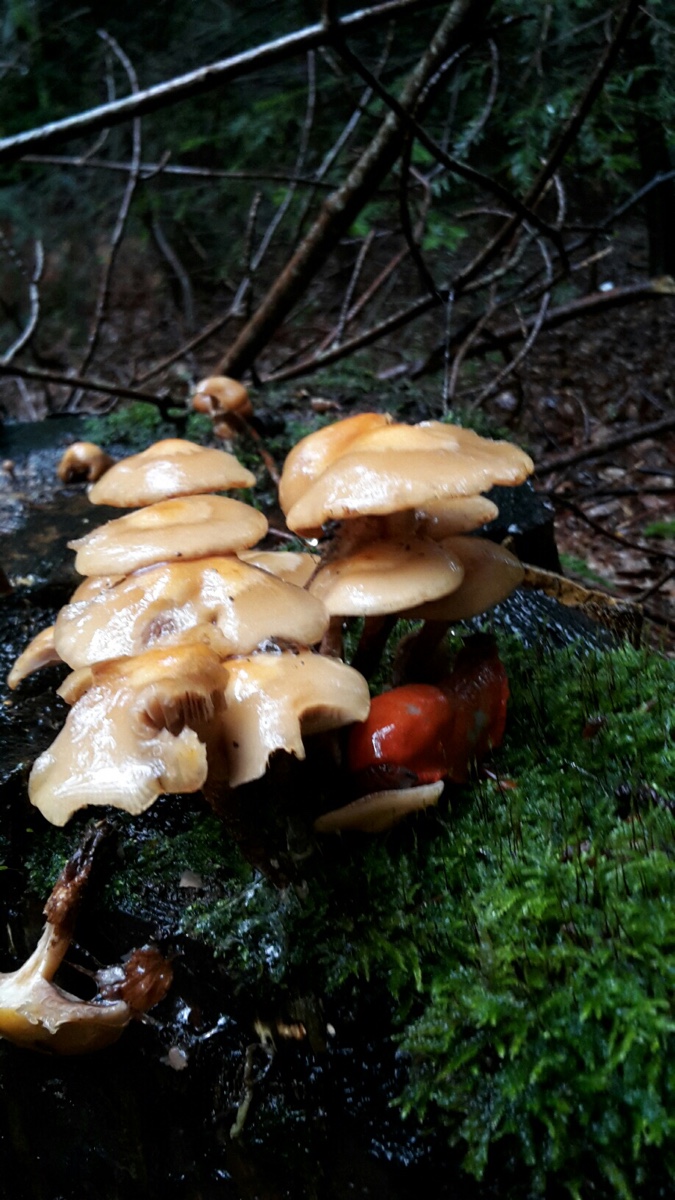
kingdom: Fungi
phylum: Basidiomycota
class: Agaricomycetes
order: Agaricales
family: Strophariaceae
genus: Kuehneromyces
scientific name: Kuehneromyces mutabilis
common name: foranderlig skælhat
